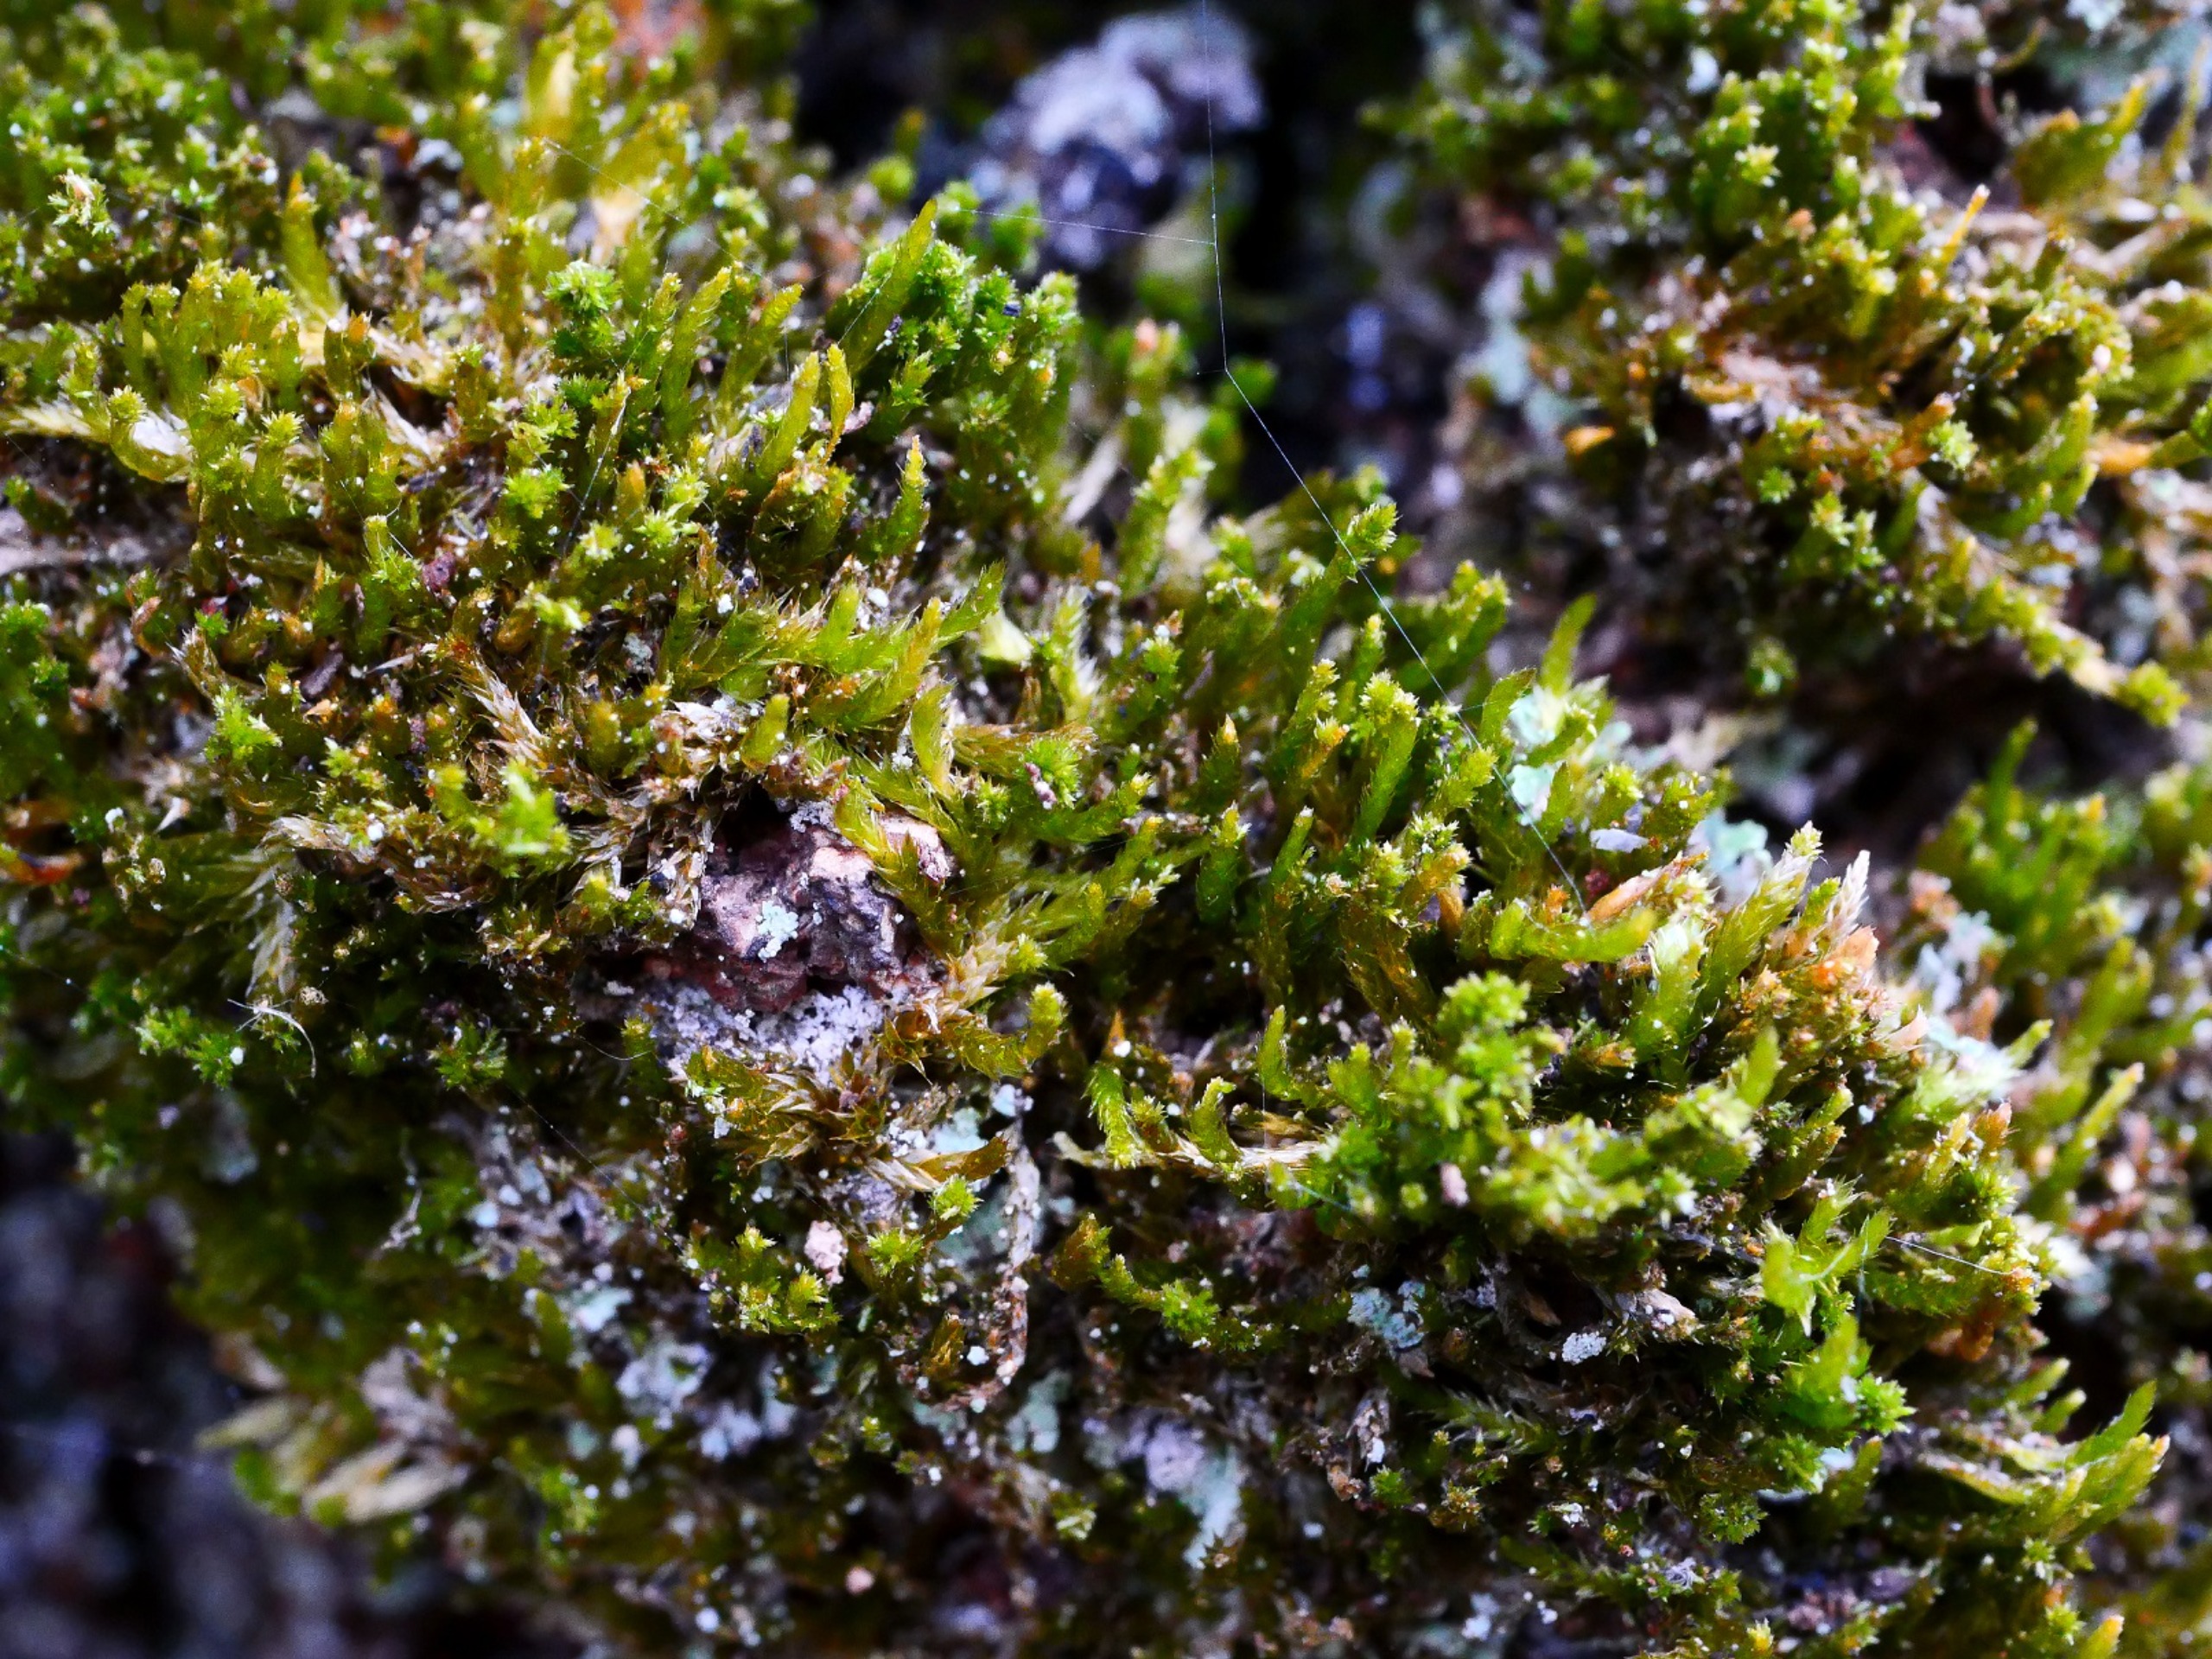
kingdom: Plantae
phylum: Bryophyta
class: Bryopsida
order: Hypnales
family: Pylaisiadelphaceae
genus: Platygyrium
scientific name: Platygyrium repens
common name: Mørk yngleknop
